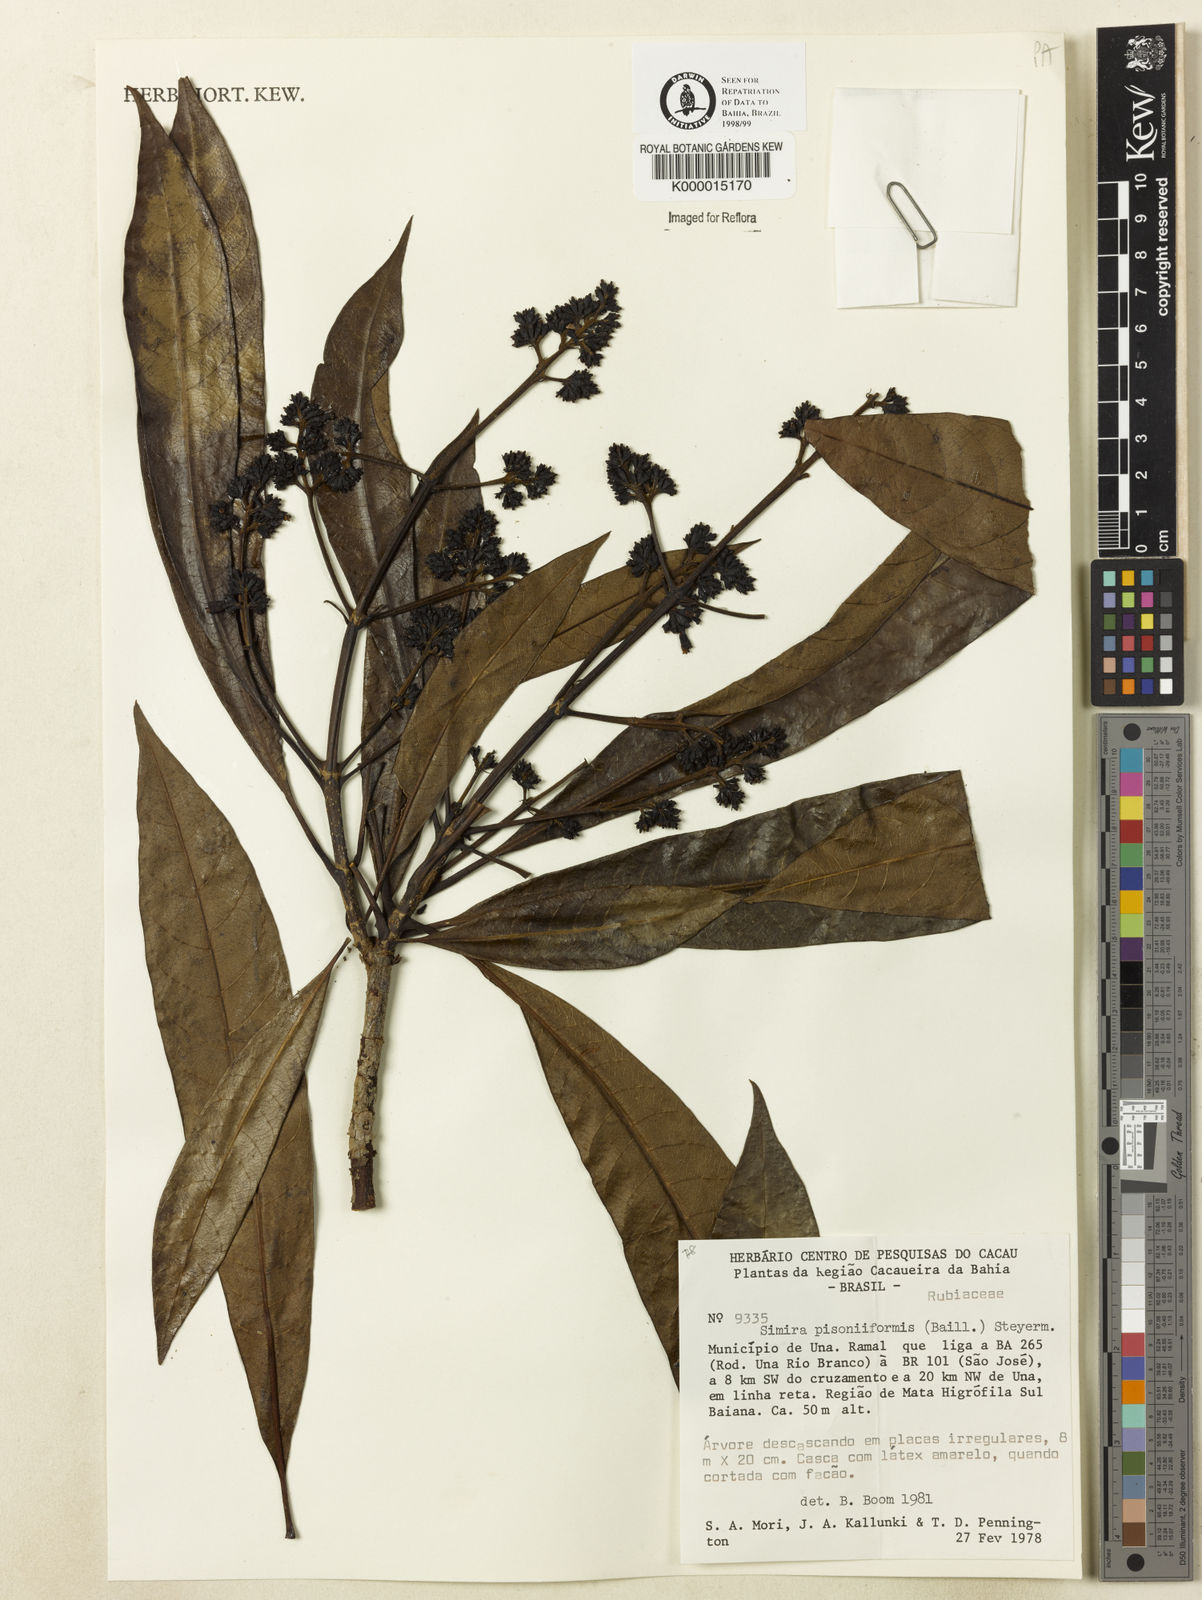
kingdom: Plantae
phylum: Tracheophyta
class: Magnoliopsida
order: Gentianales
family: Rubiaceae
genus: Simira
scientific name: Simira podocarpa
